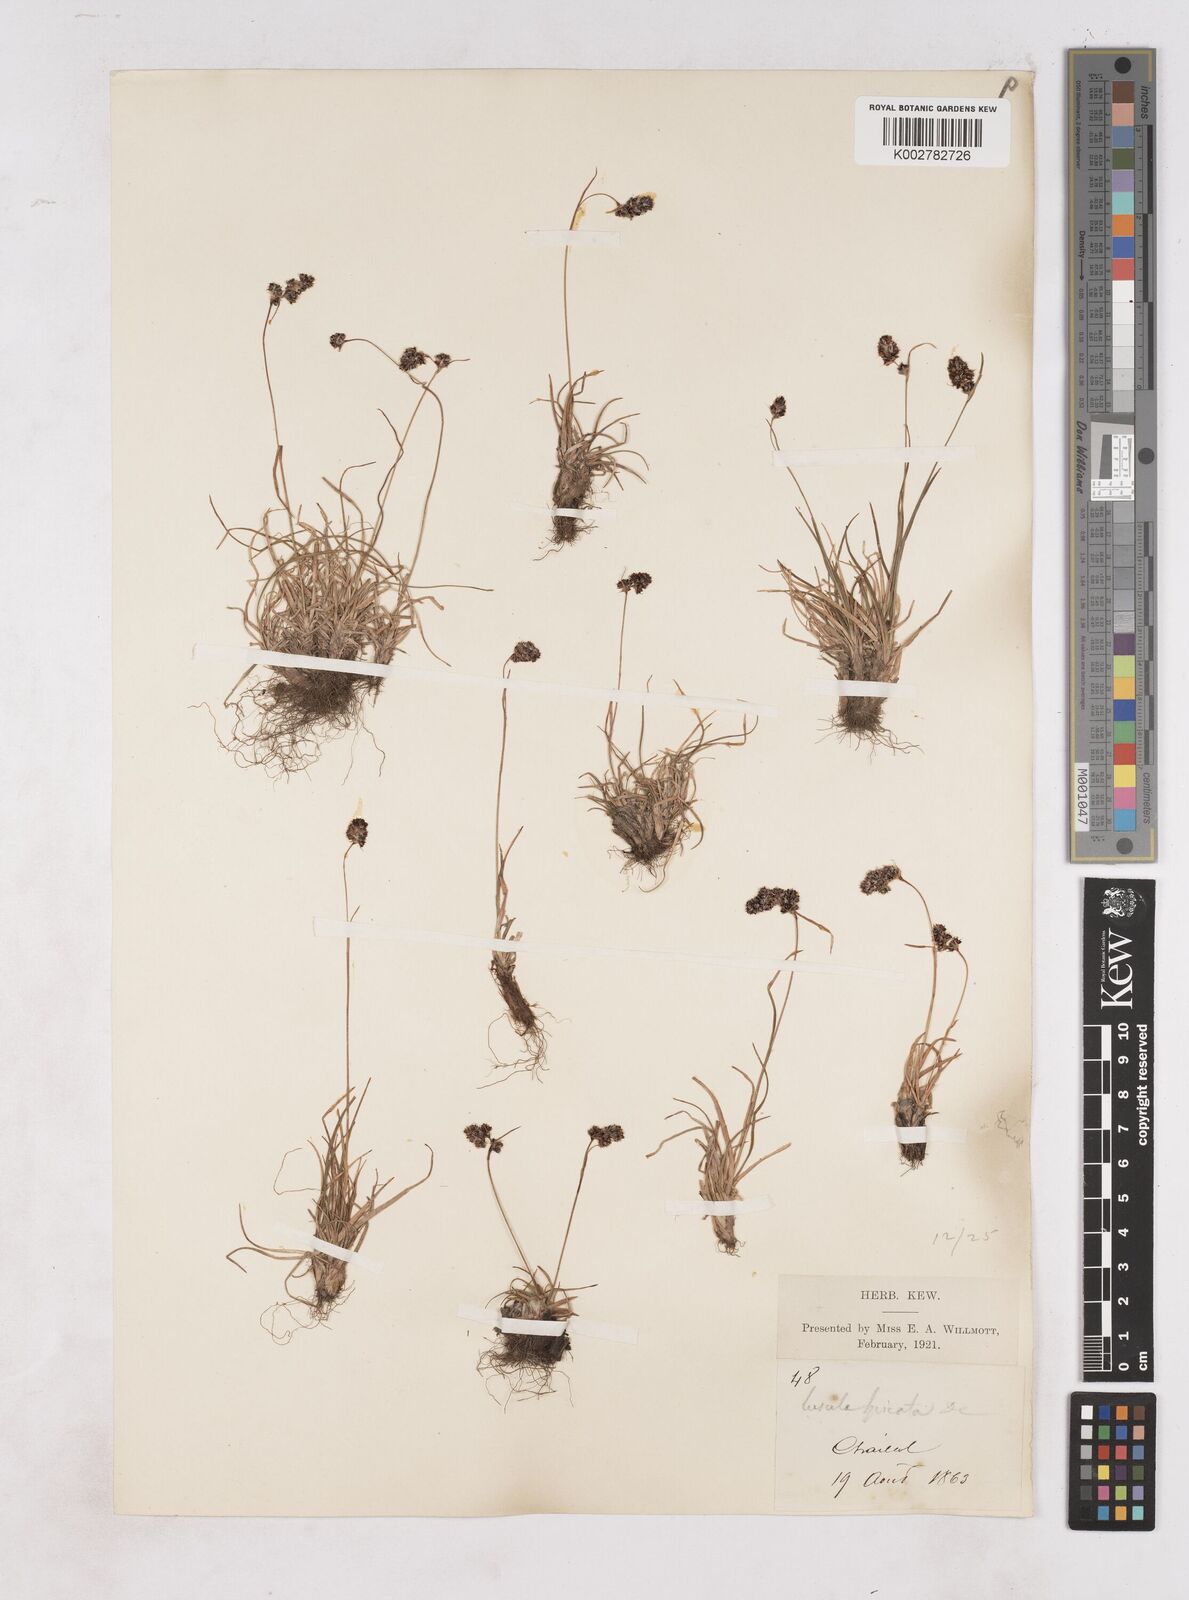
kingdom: Plantae
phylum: Tracheophyta
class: Liliopsida
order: Poales
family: Juncaceae
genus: Luzula
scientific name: Luzula spicata
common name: Spiked wood-rush
